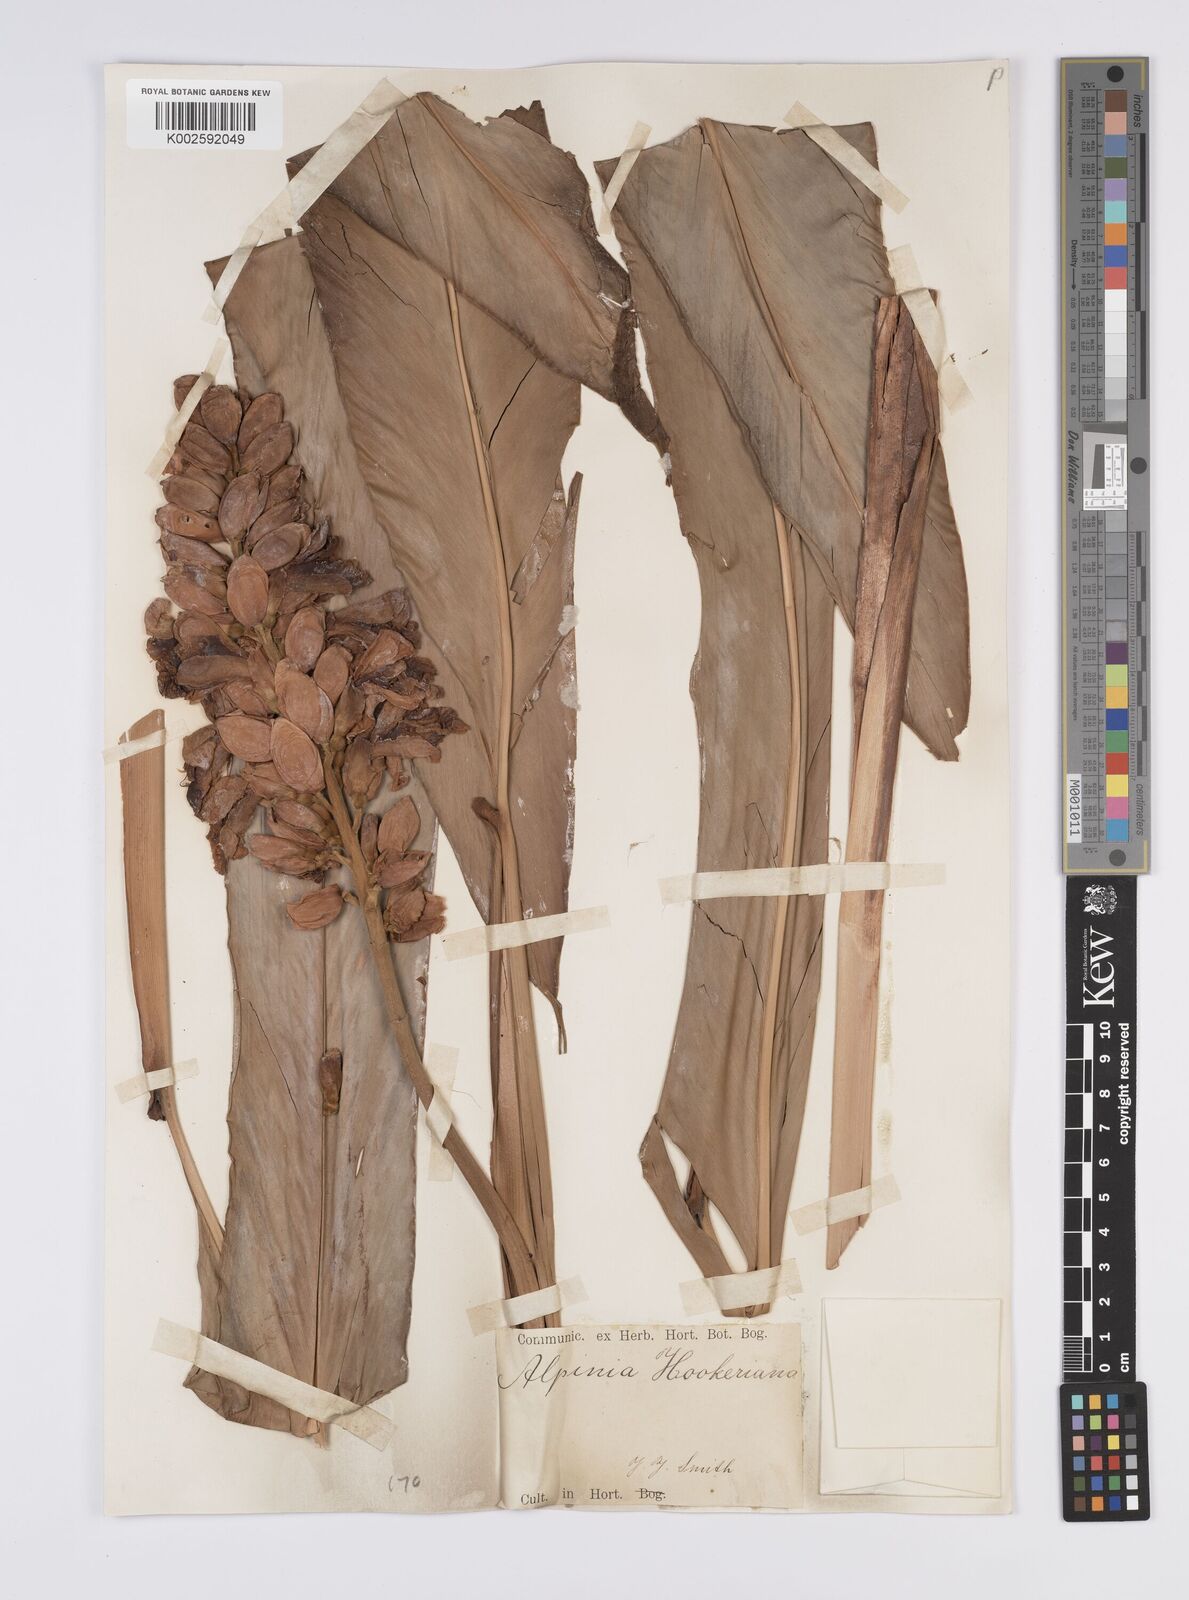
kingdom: Plantae
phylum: Tracheophyta
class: Liliopsida
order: Zingiberales
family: Zingiberaceae
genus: Alpinia
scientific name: Alpinia assimilis
